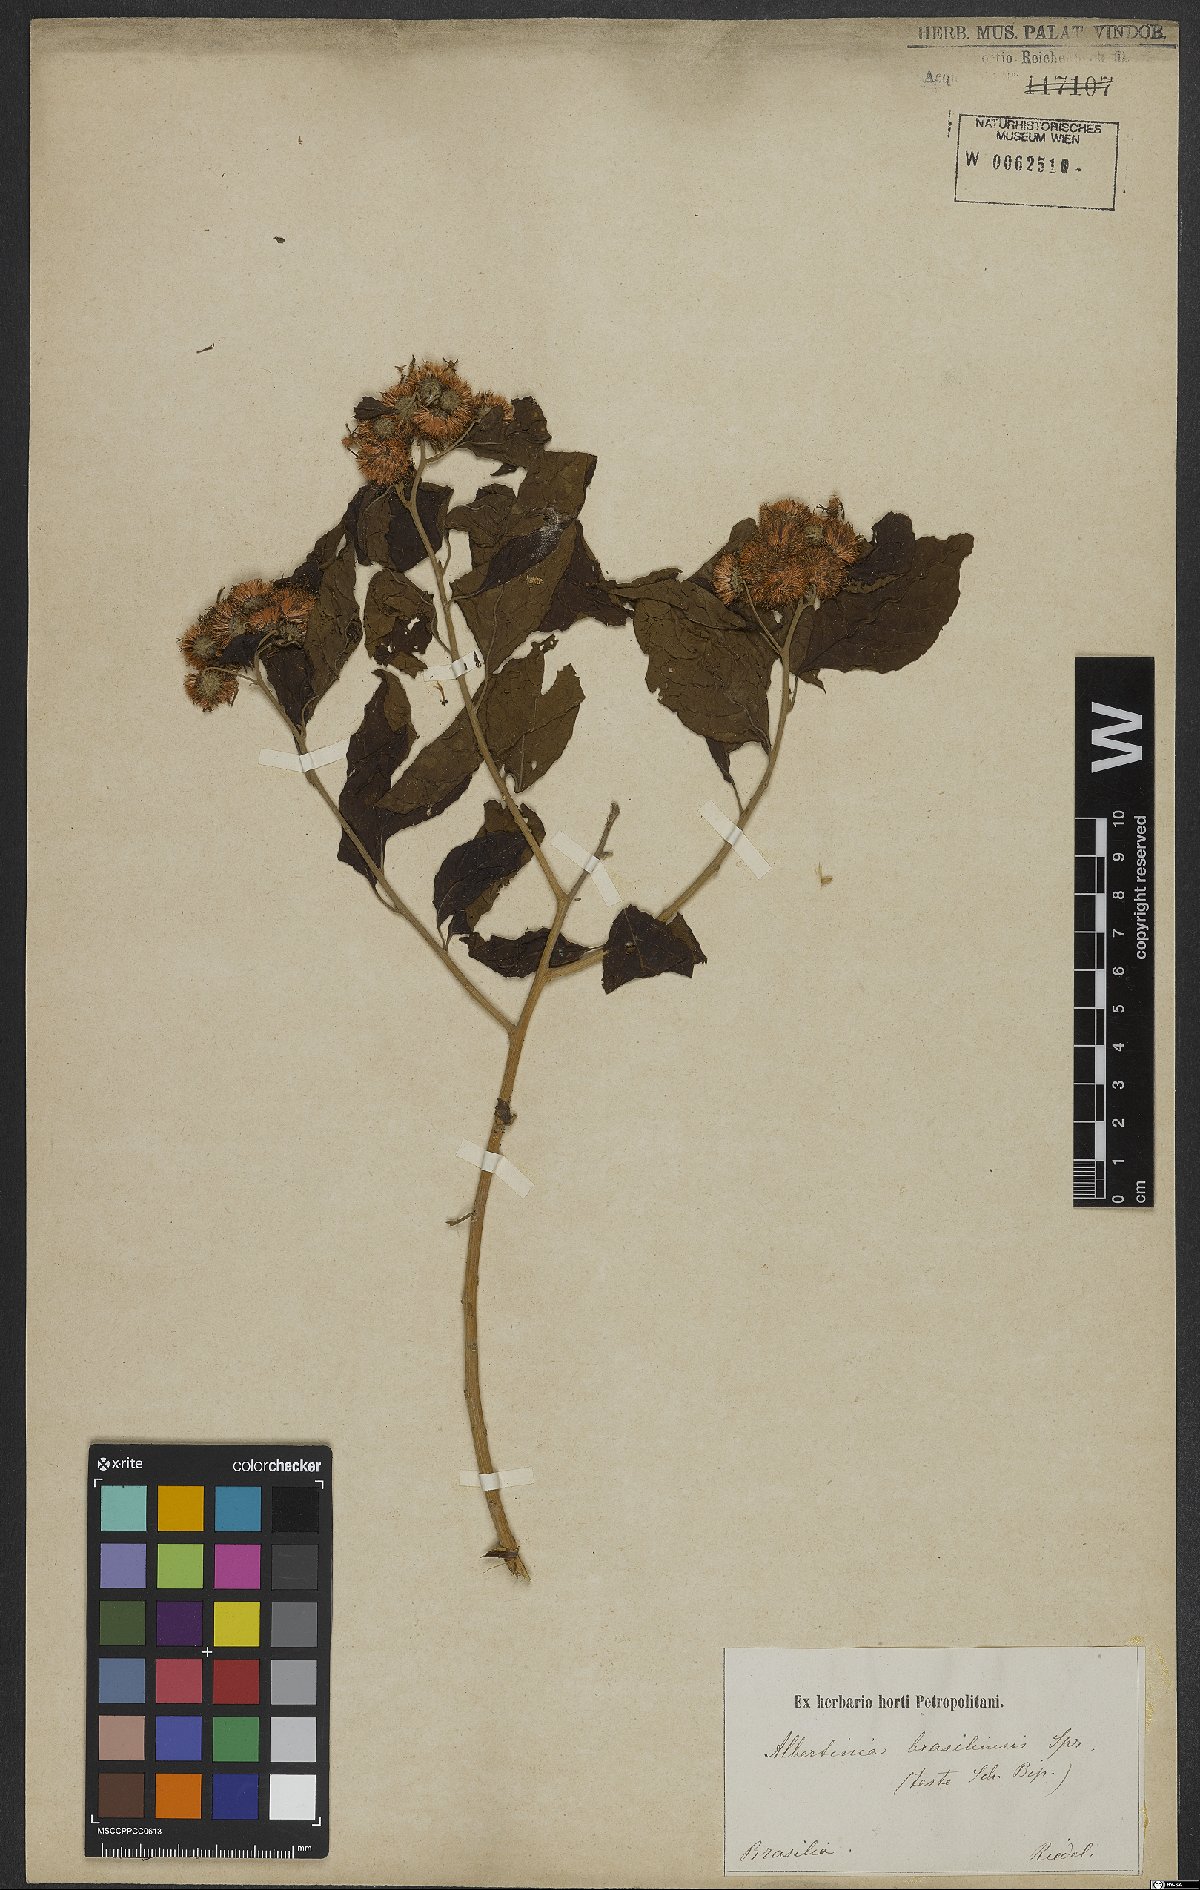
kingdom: Plantae
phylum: Tracheophyta
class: Magnoliopsida
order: Asterales
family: Asteraceae
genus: Albertinia
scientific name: Albertinia brasiliensis
